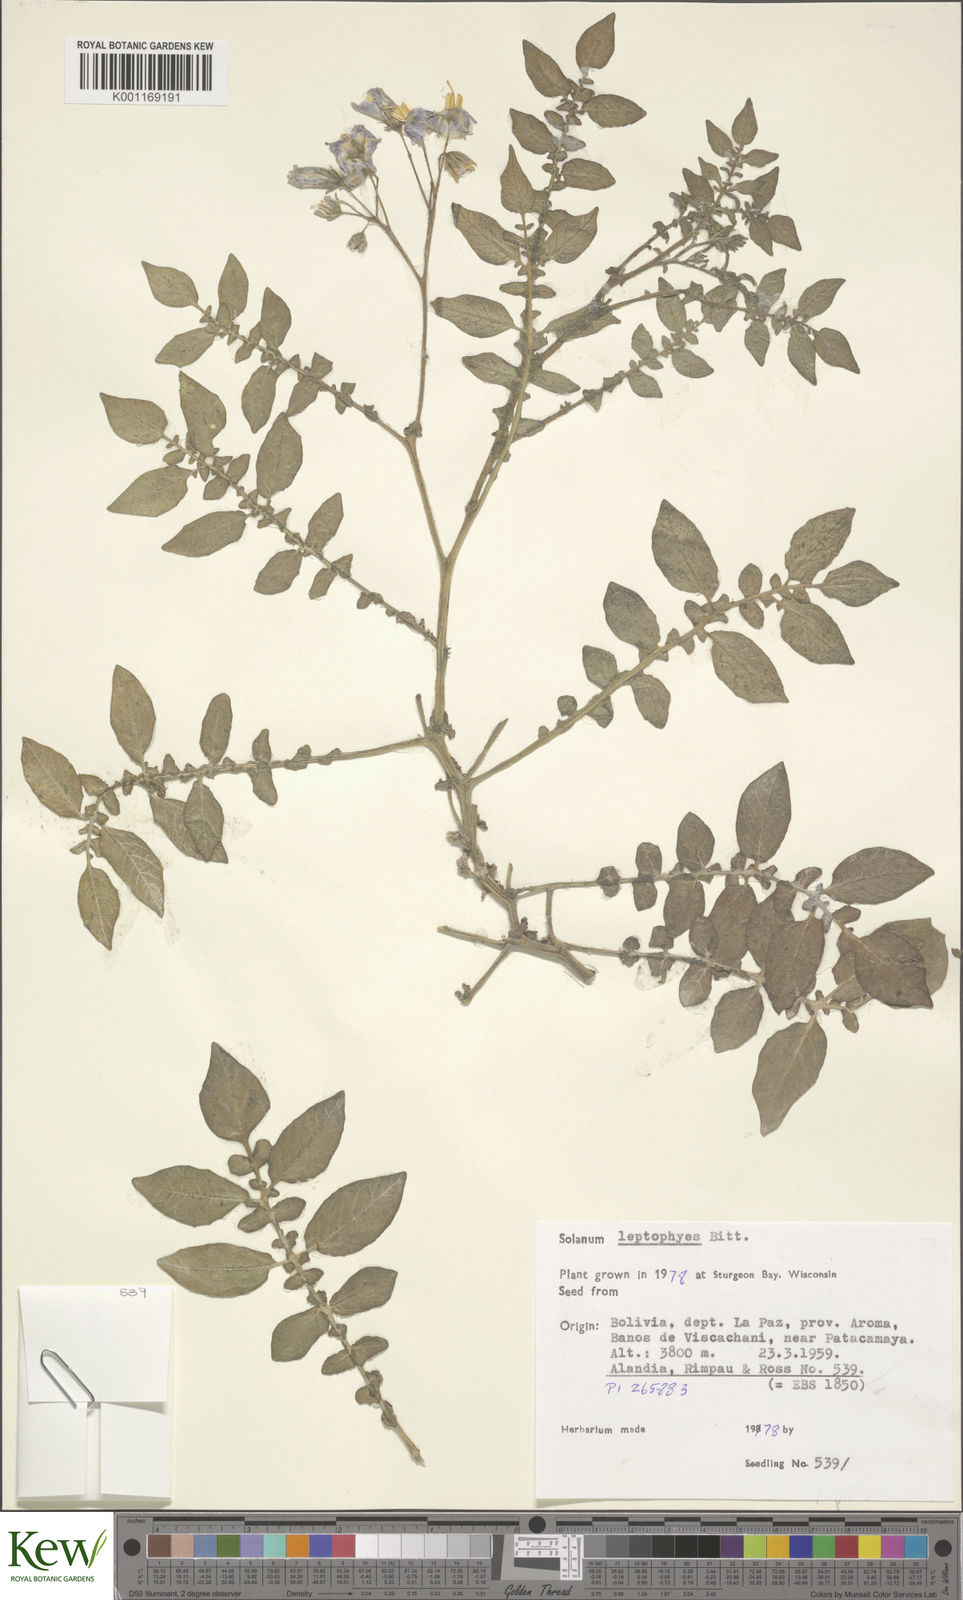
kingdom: Plantae
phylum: Tracheophyta
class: Magnoliopsida
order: Solanales
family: Solanaceae
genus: Solanum
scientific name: Solanum brevicaule
